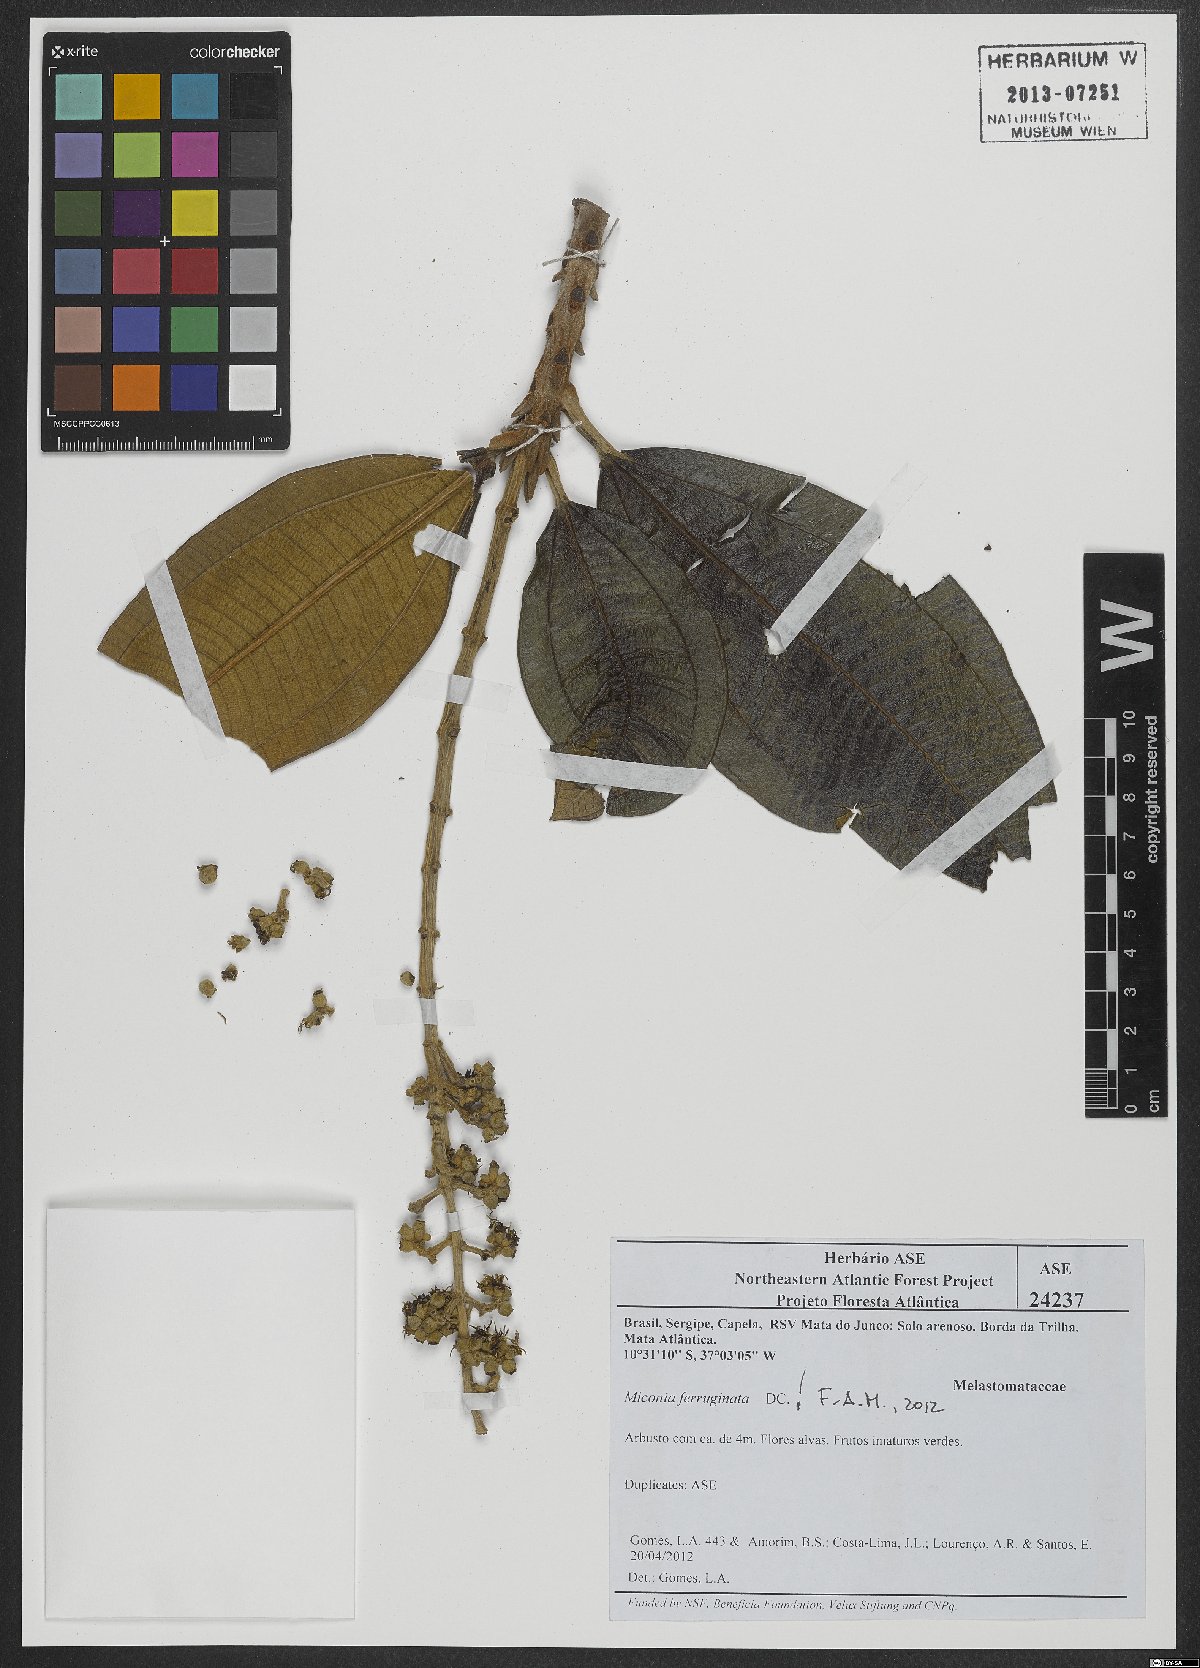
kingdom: Plantae
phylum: Tracheophyta
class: Magnoliopsida
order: Myrtales
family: Melastomataceae
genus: Miconia
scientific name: Miconia ferruginata
